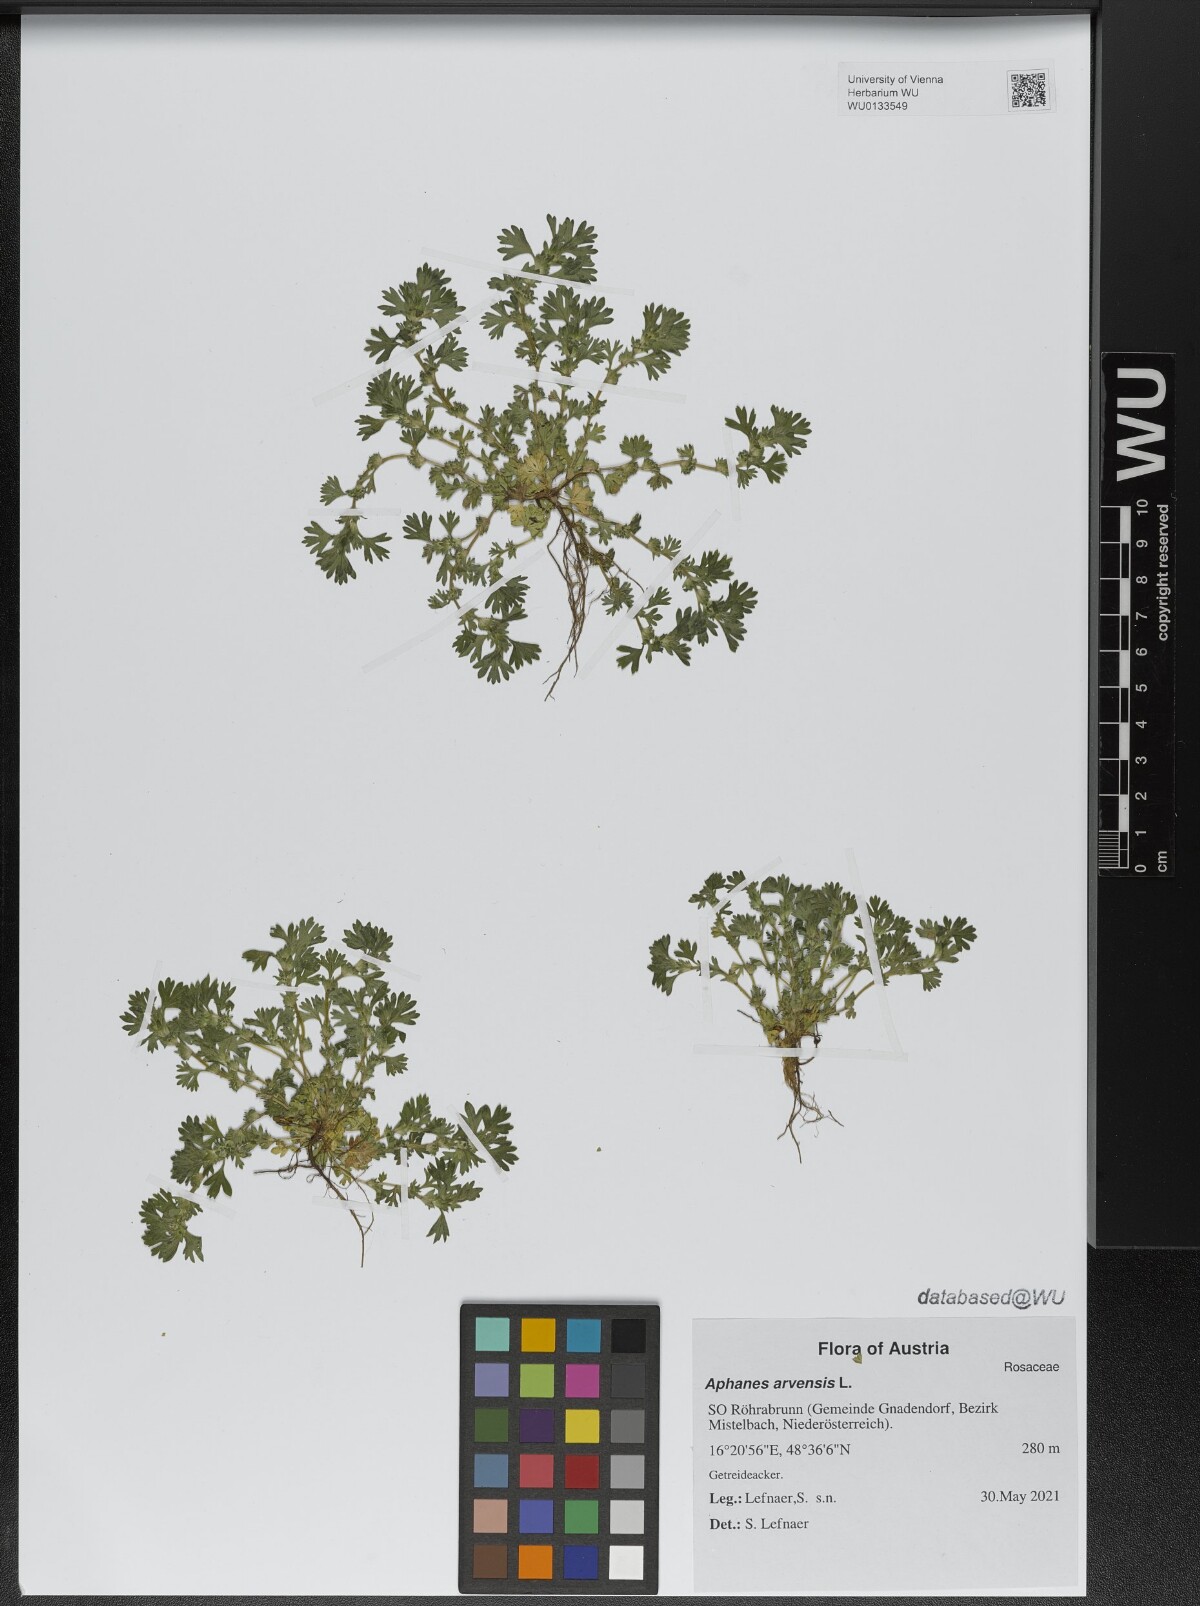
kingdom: Plantae
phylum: Tracheophyta
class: Magnoliopsida
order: Rosales
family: Rosaceae
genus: Aphanes
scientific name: Aphanes arvensis
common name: Parsley-piert
